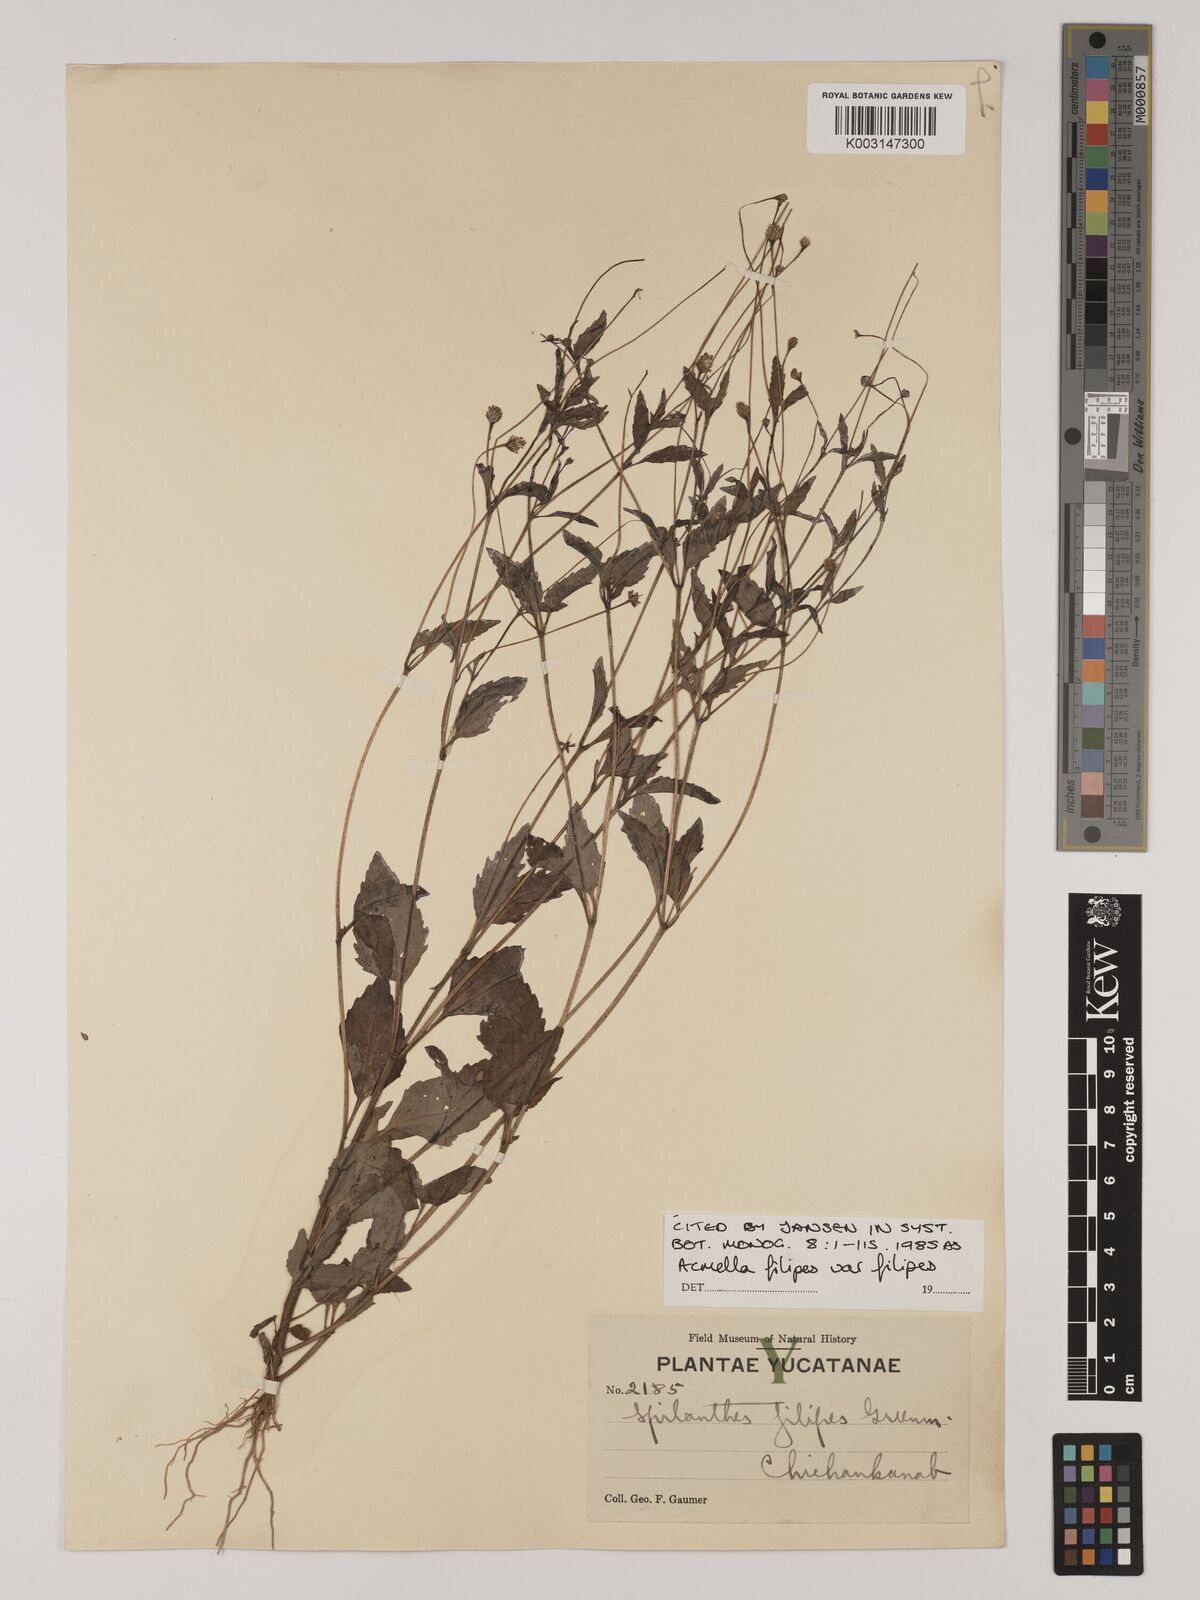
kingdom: Plantae
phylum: Tracheophyta
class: Magnoliopsida
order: Asterales
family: Asteraceae
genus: Acmella
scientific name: Acmella filipes
